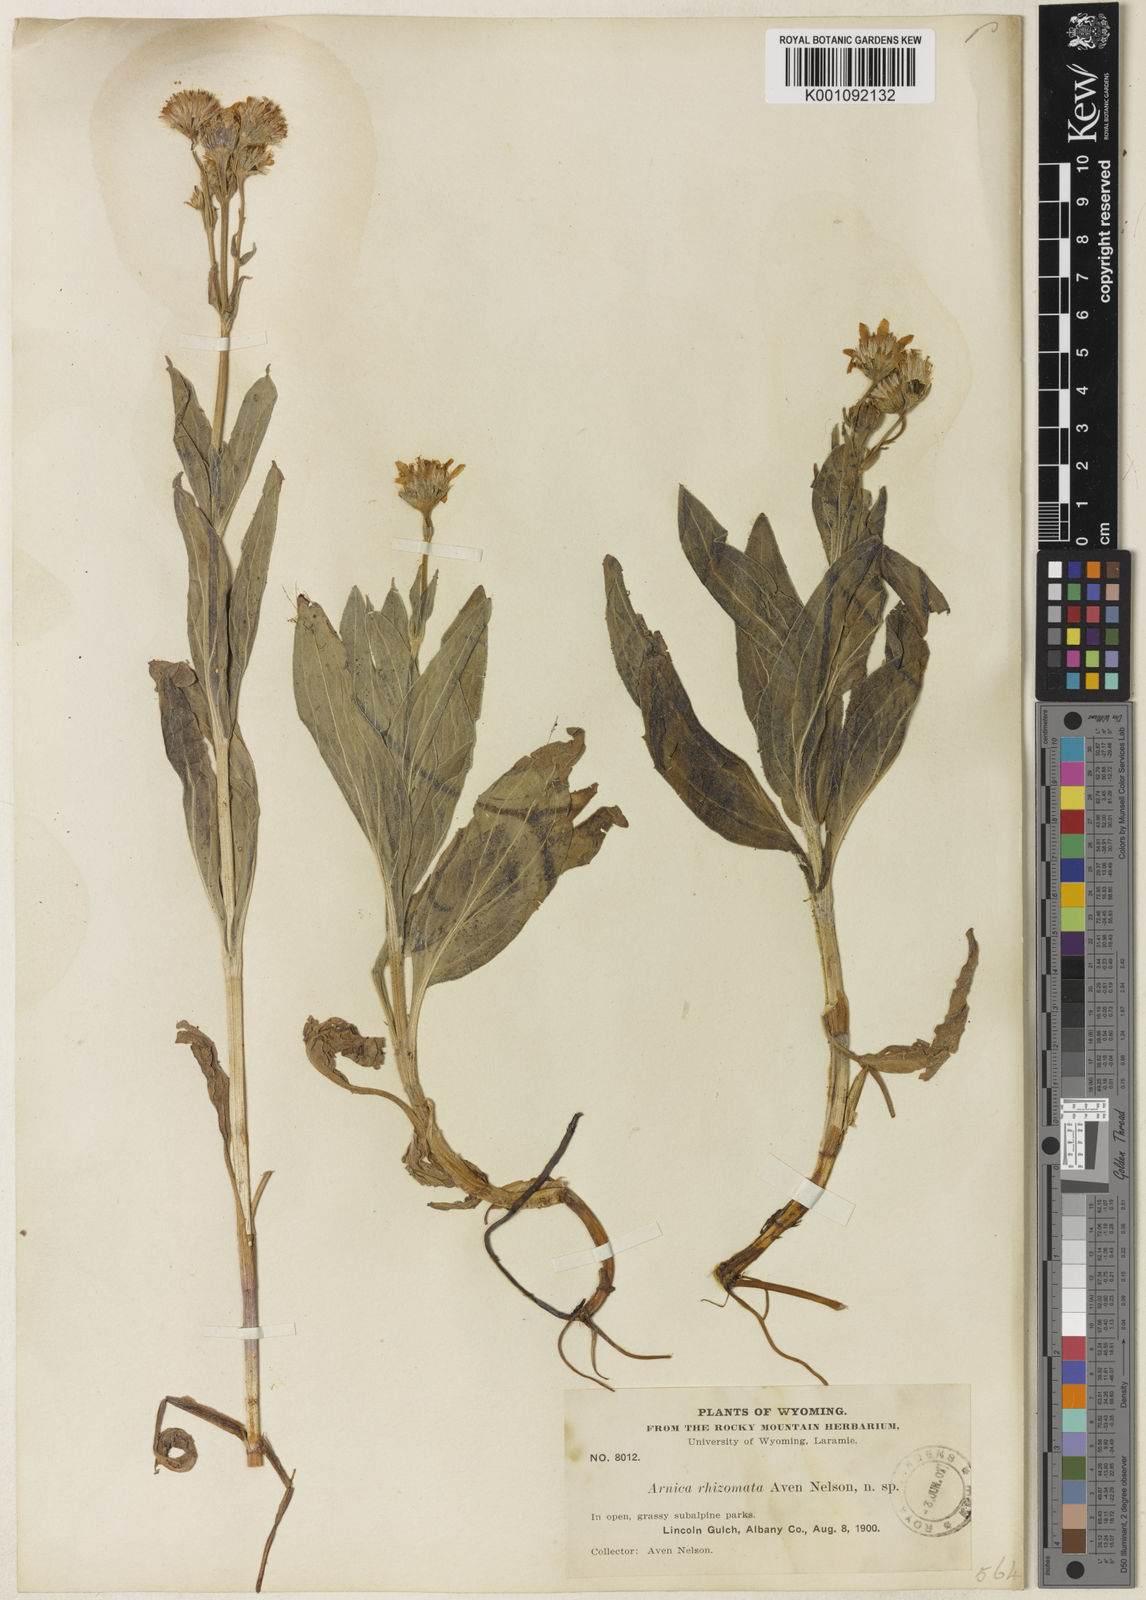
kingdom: Plantae
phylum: Tracheophyta
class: Magnoliopsida
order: Asterales
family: Asteraceae
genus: Arnica
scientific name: Arnica chamissonis
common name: Leafy arnica
